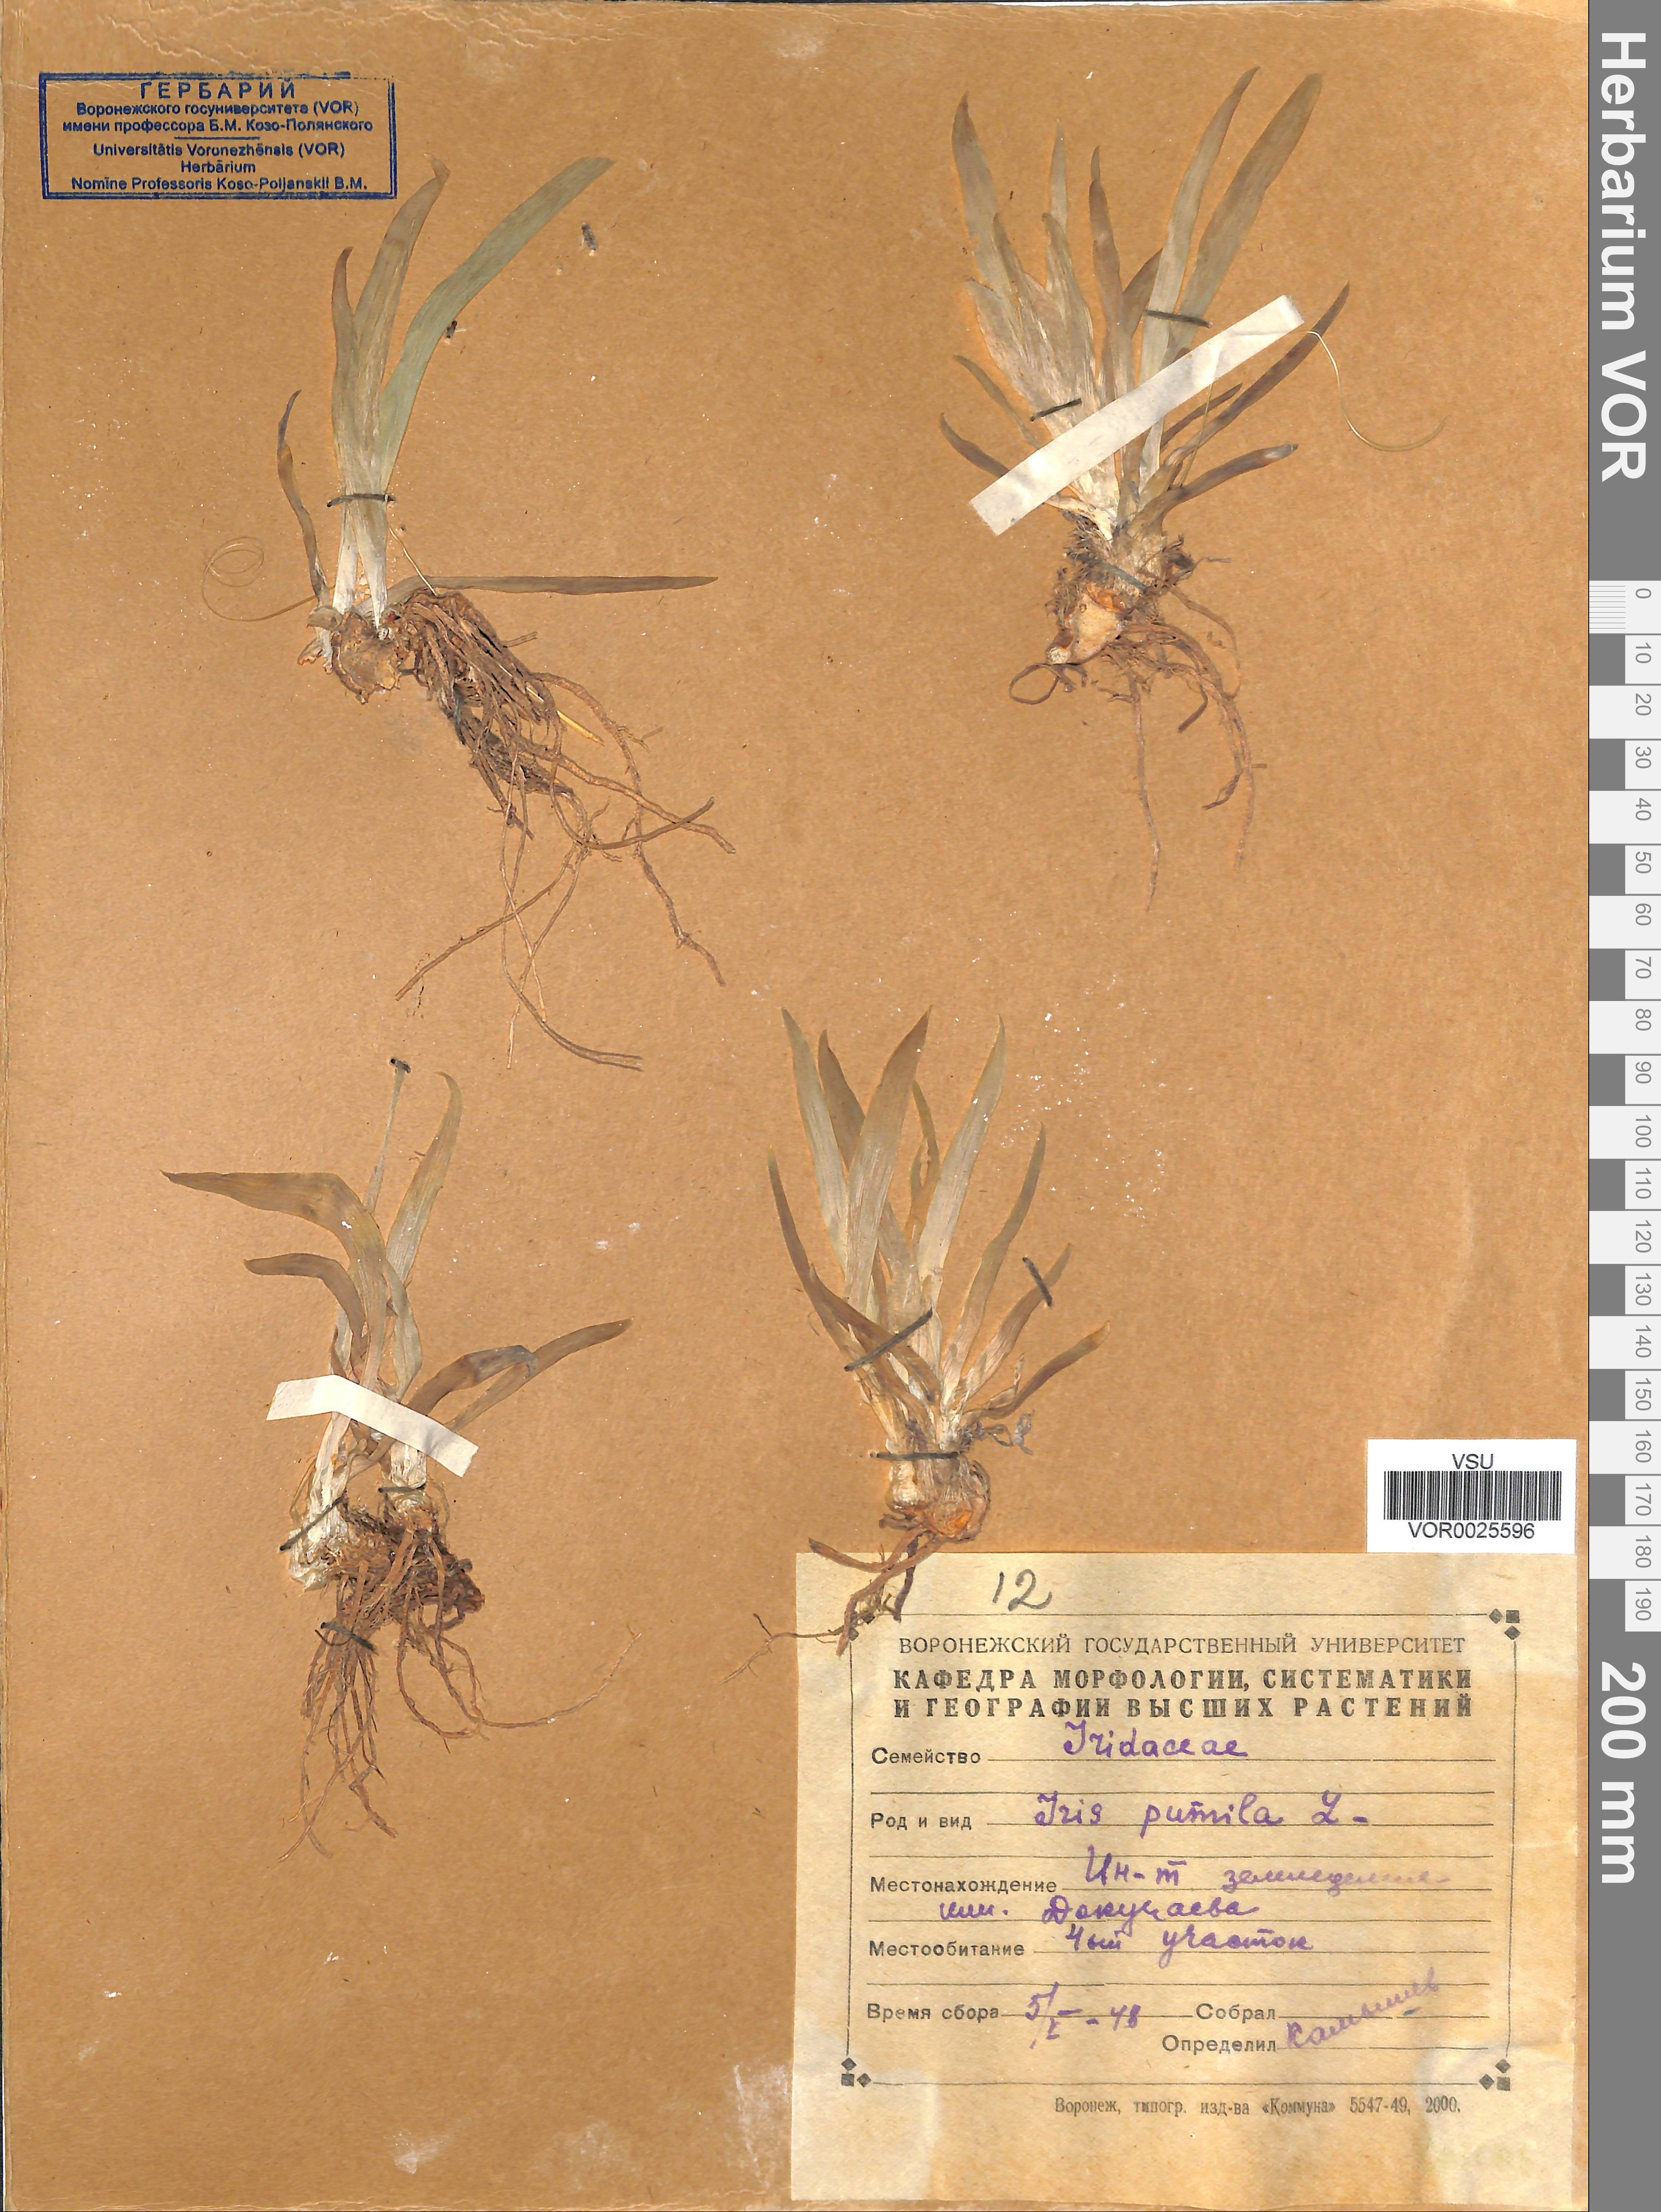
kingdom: Plantae
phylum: Tracheophyta
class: Liliopsida
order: Asparagales
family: Iridaceae
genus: Iris
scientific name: Iris pumila
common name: Dwarf iris
